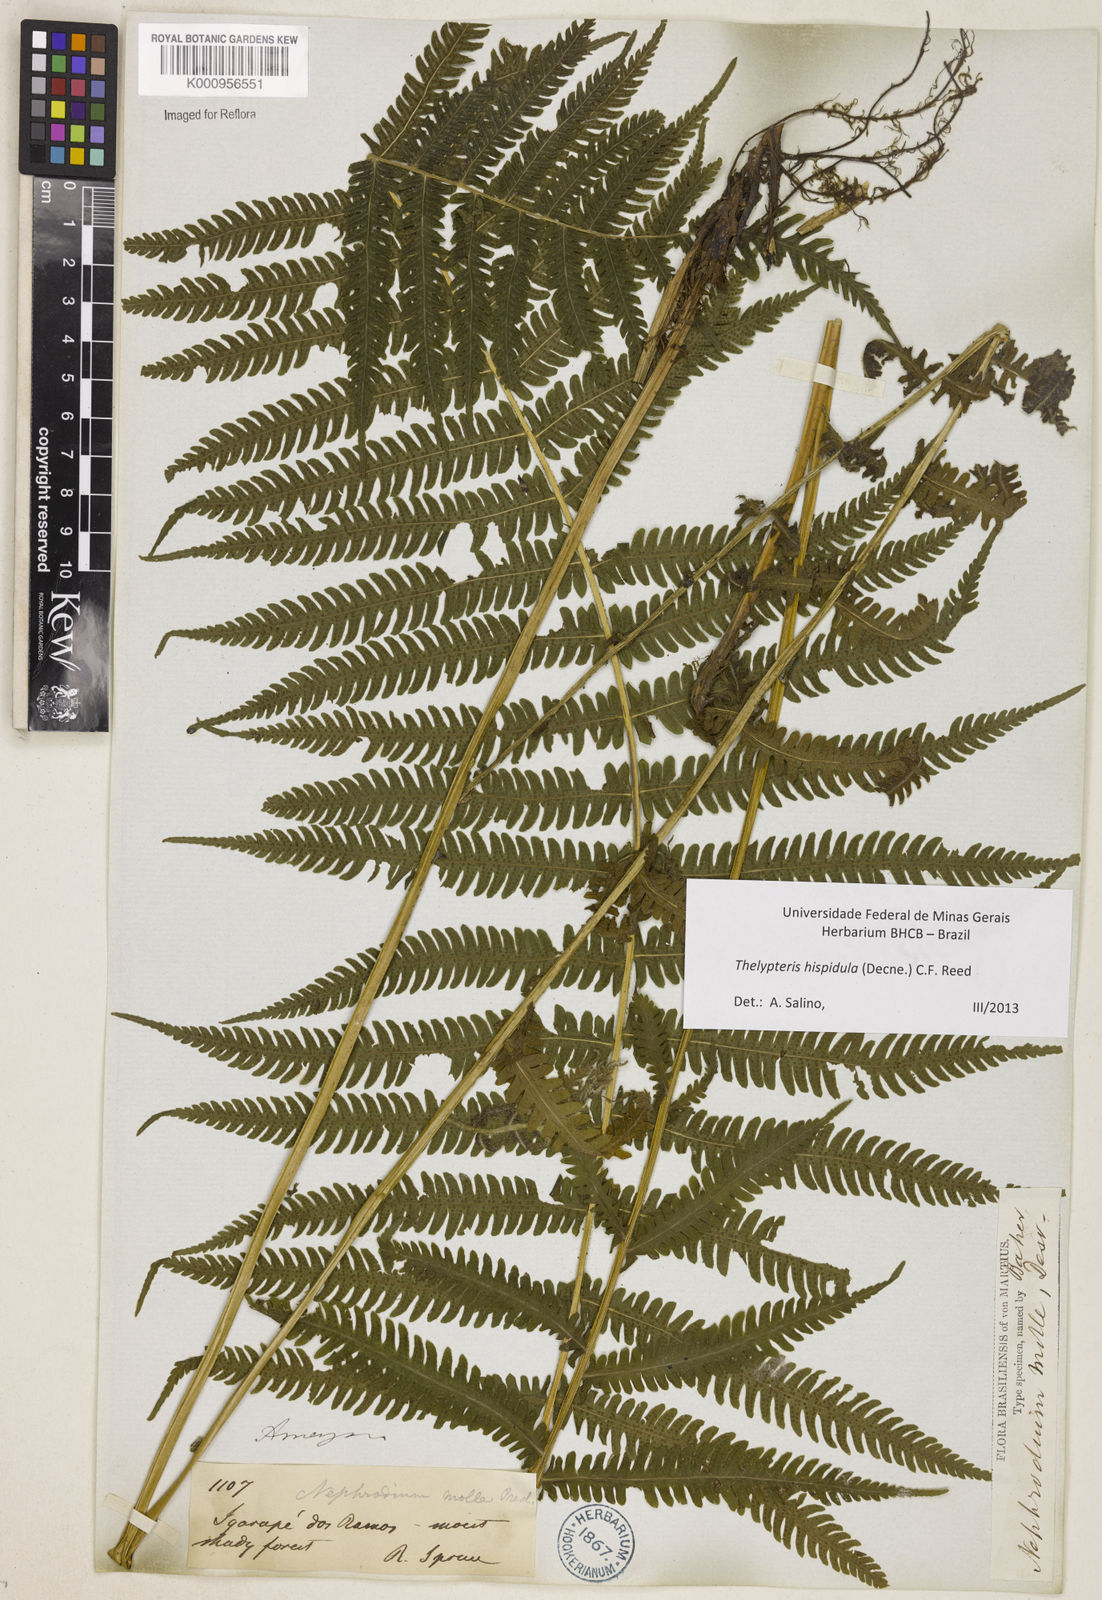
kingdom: Plantae
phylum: Tracheophyta
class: Polypodiopsida
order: Polypodiales
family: Thelypteridaceae
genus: Christella
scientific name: Christella hispidula
